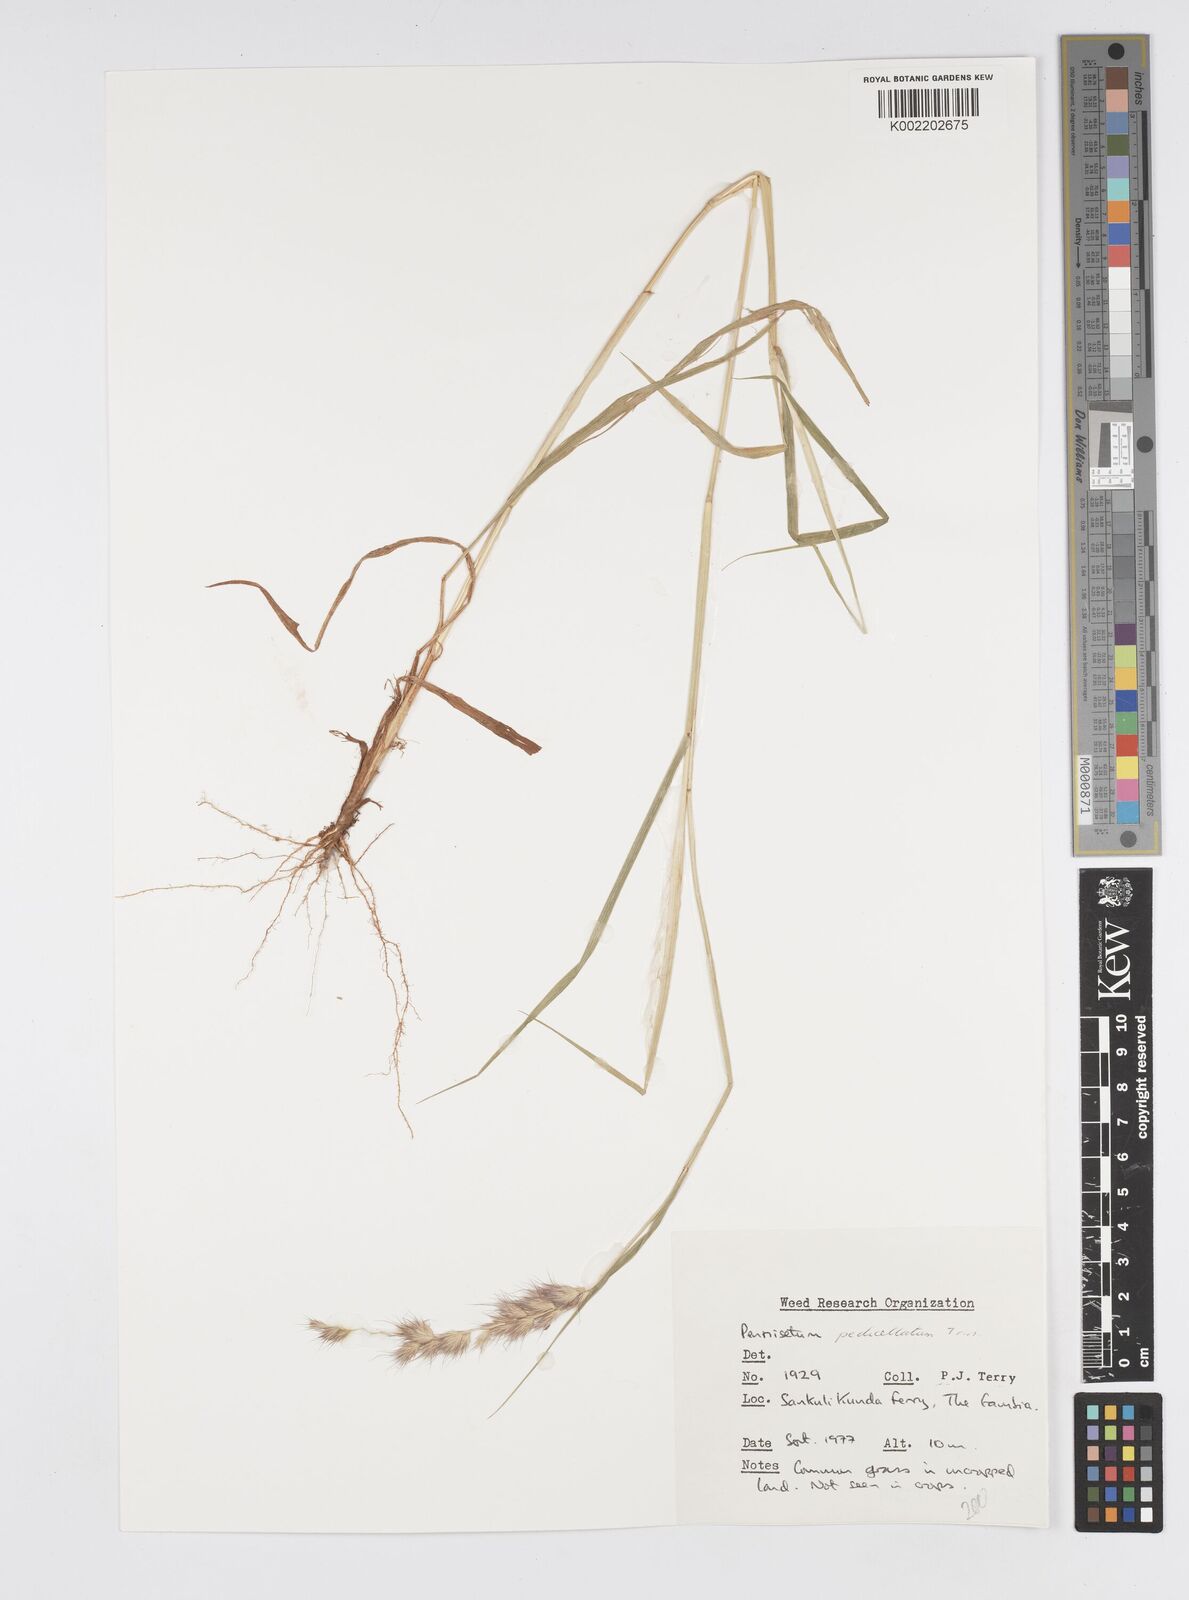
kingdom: Plantae
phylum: Tracheophyta
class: Liliopsida
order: Poales
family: Poaceae
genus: Cenchrus
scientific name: Cenchrus pedicellatus
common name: Hairy fountain grass
